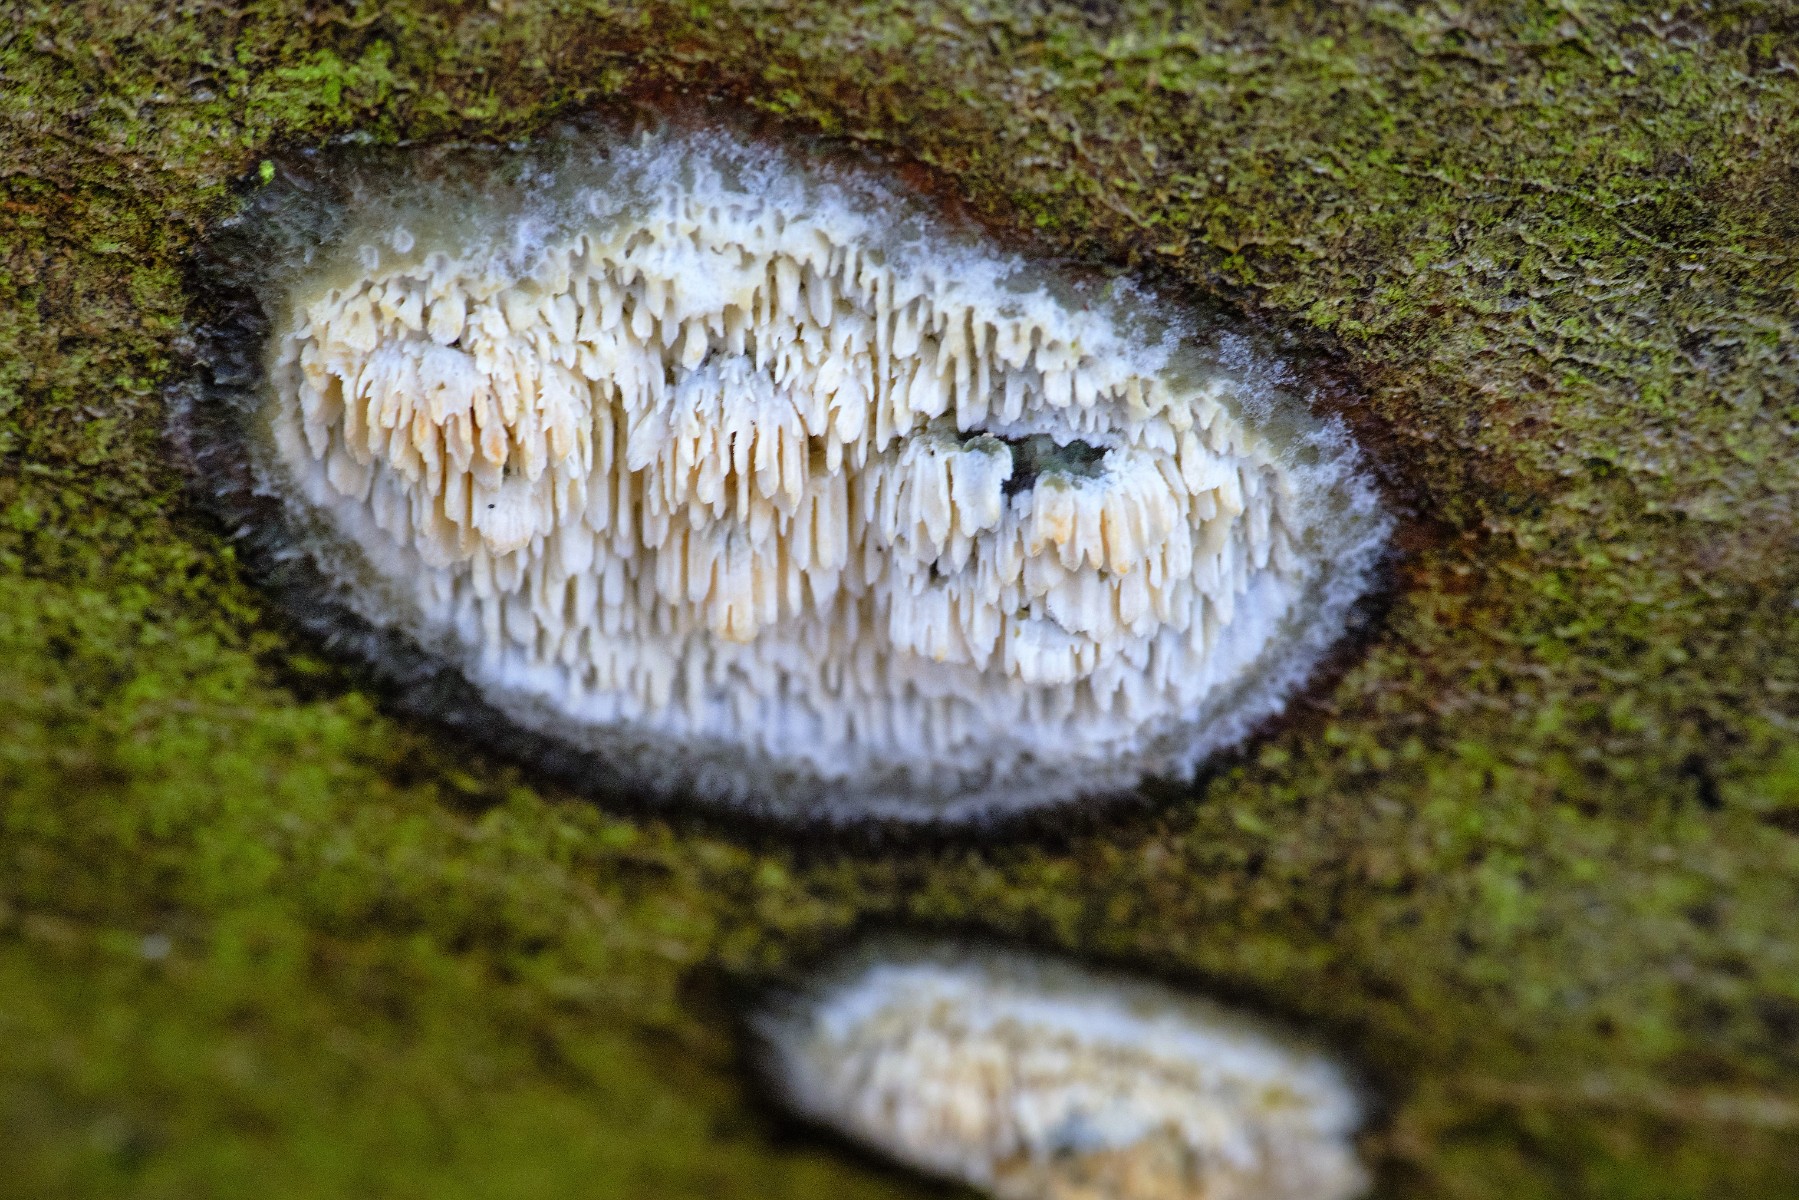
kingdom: Fungi
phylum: Basidiomycota
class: Agaricomycetes
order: Hymenochaetales
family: Schizoporaceae
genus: Xylodon
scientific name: Xylodon radula
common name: grovtandet kalkskind
